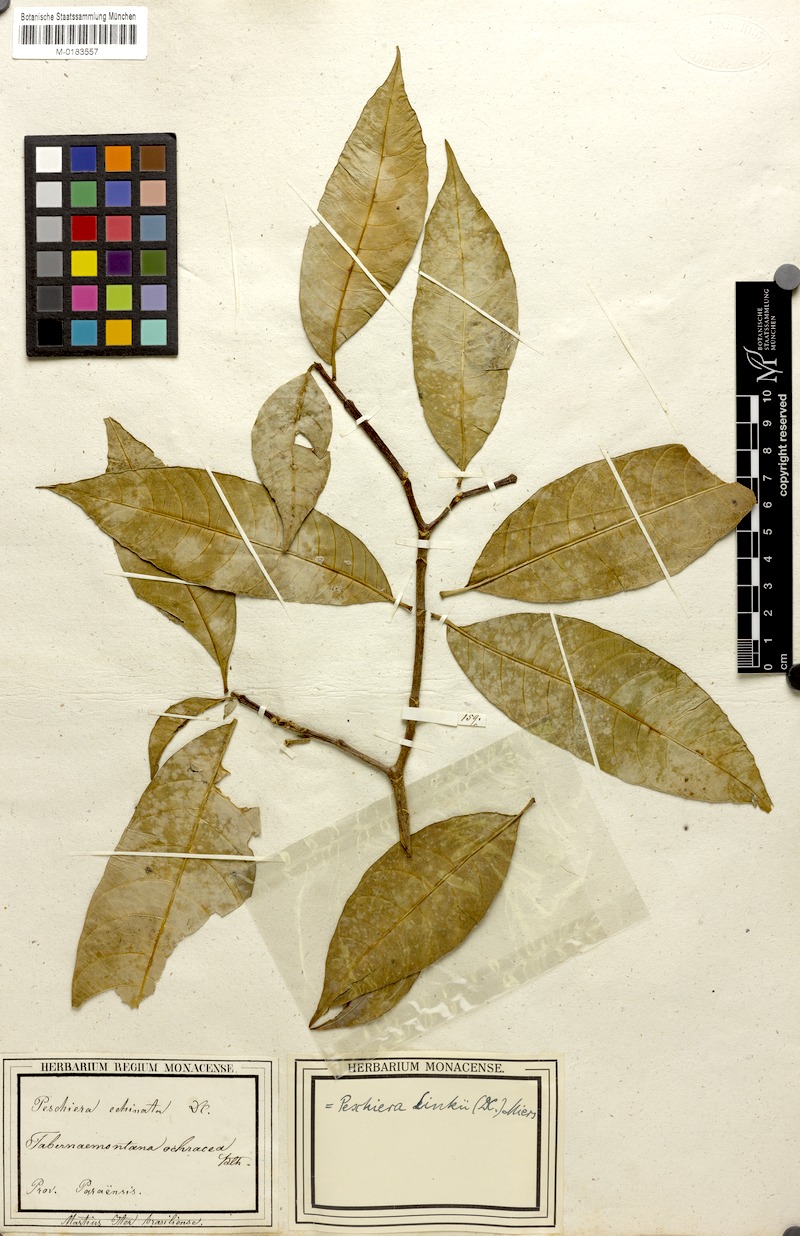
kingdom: Plantae
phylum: Tracheophyta
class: Magnoliopsida
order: Gentianales
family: Apocynaceae
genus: Tabernaemontana
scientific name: Tabernaemontana linkii
